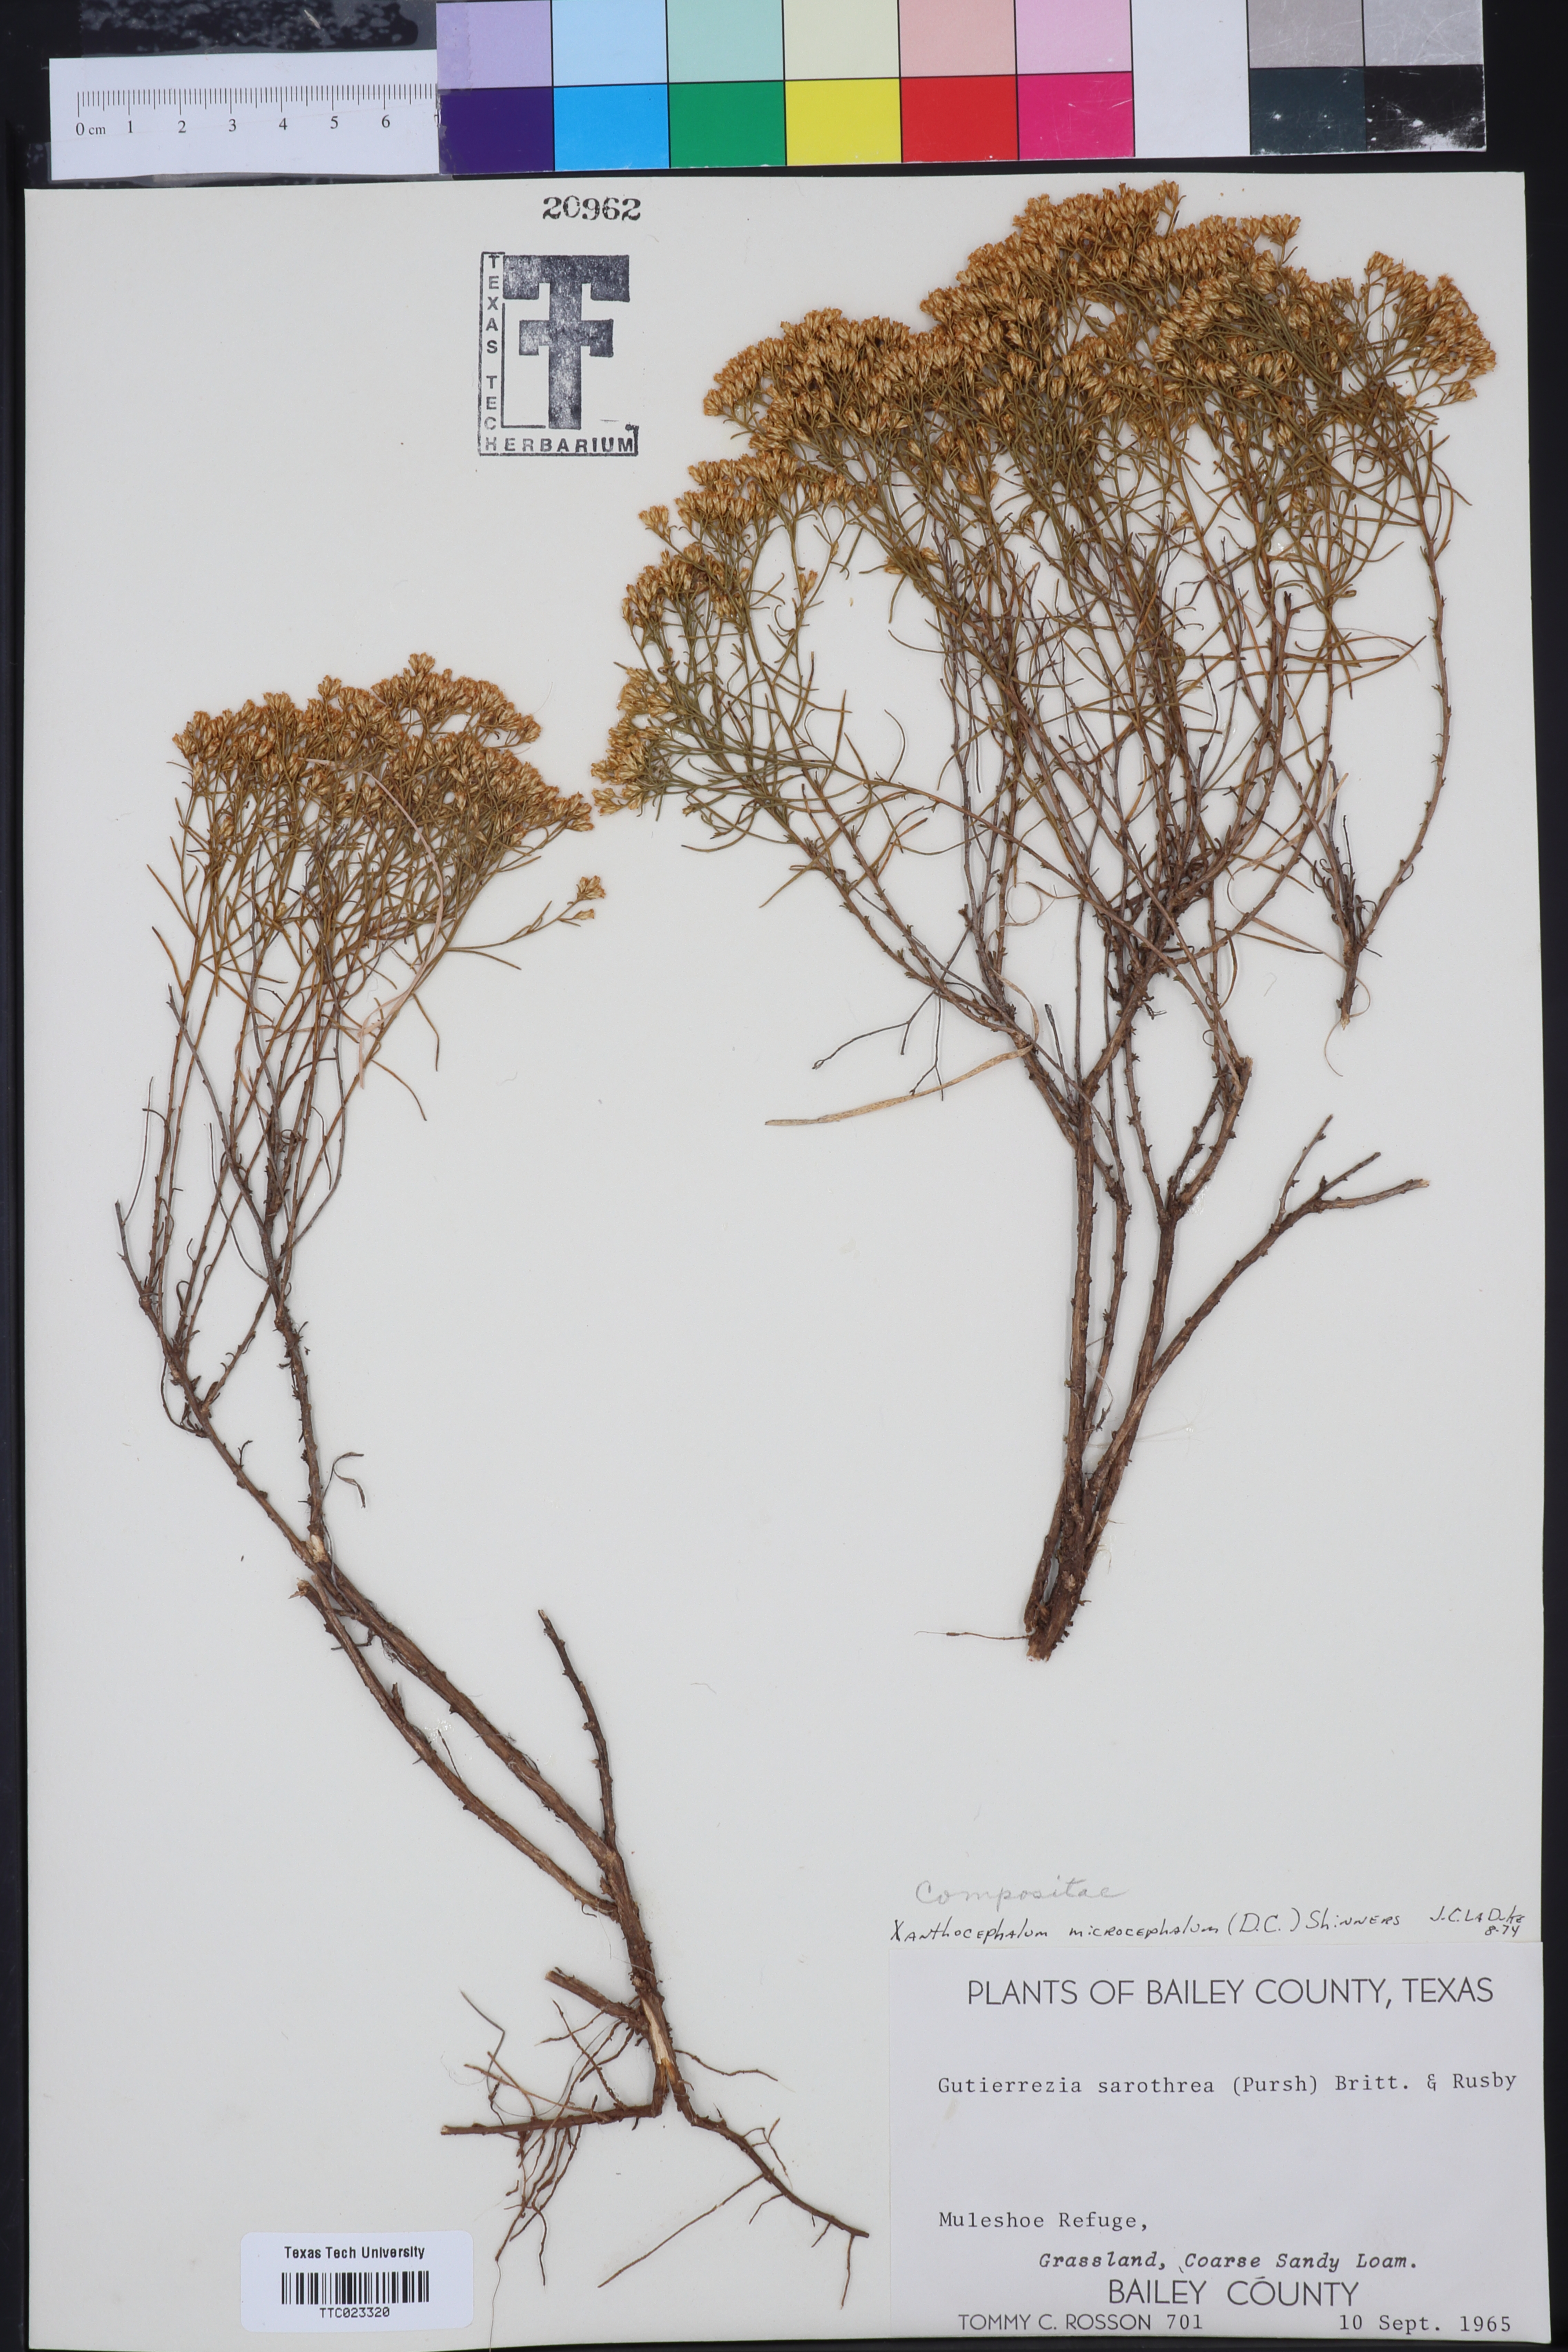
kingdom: Plantae
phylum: Tracheophyta
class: Magnoliopsida
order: Asterales
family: Asteraceae
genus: Gutierrezia
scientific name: Gutierrezia microcephala
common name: Thread snakeweed
